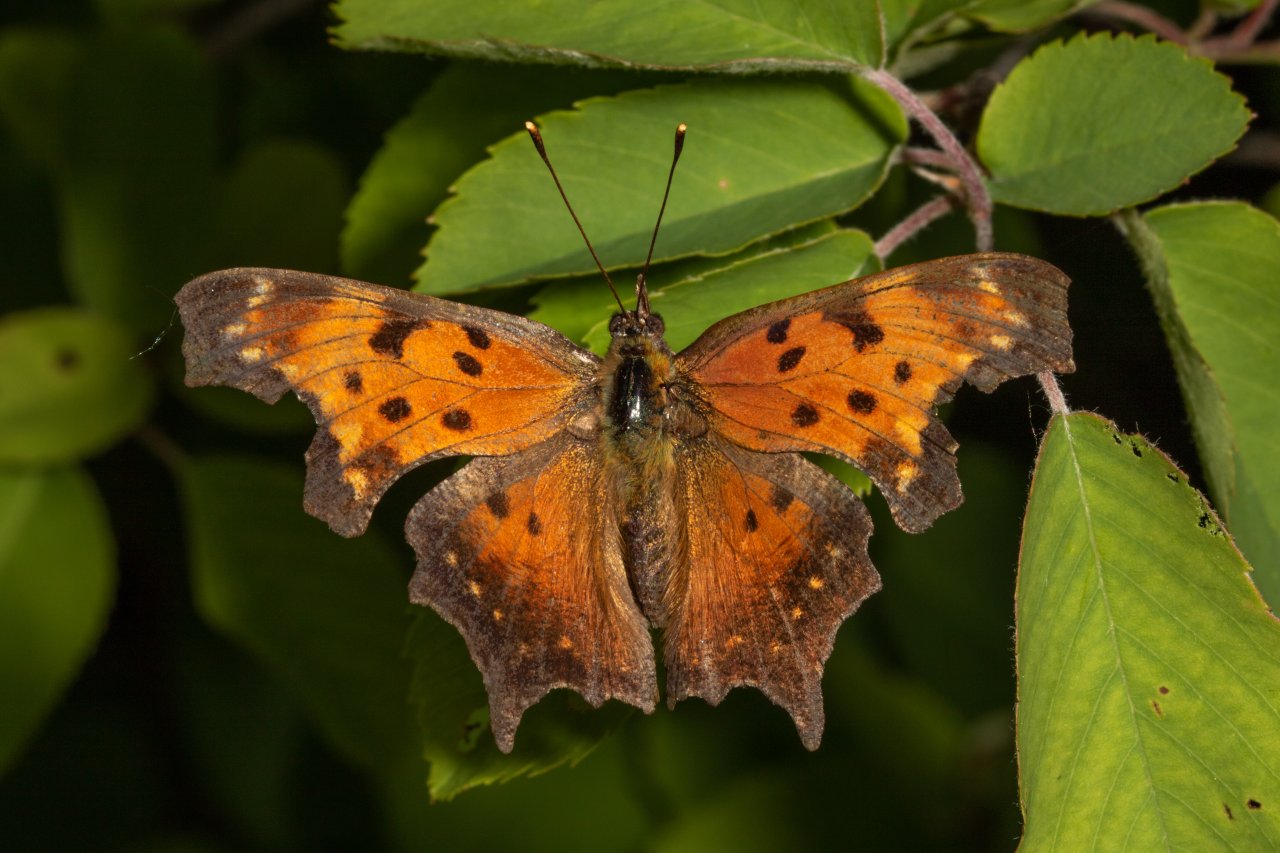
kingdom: Animalia
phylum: Arthropoda
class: Insecta
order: Lepidoptera
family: Nymphalidae
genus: Polygonia
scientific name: Polygonia progne
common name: Gray Comma
